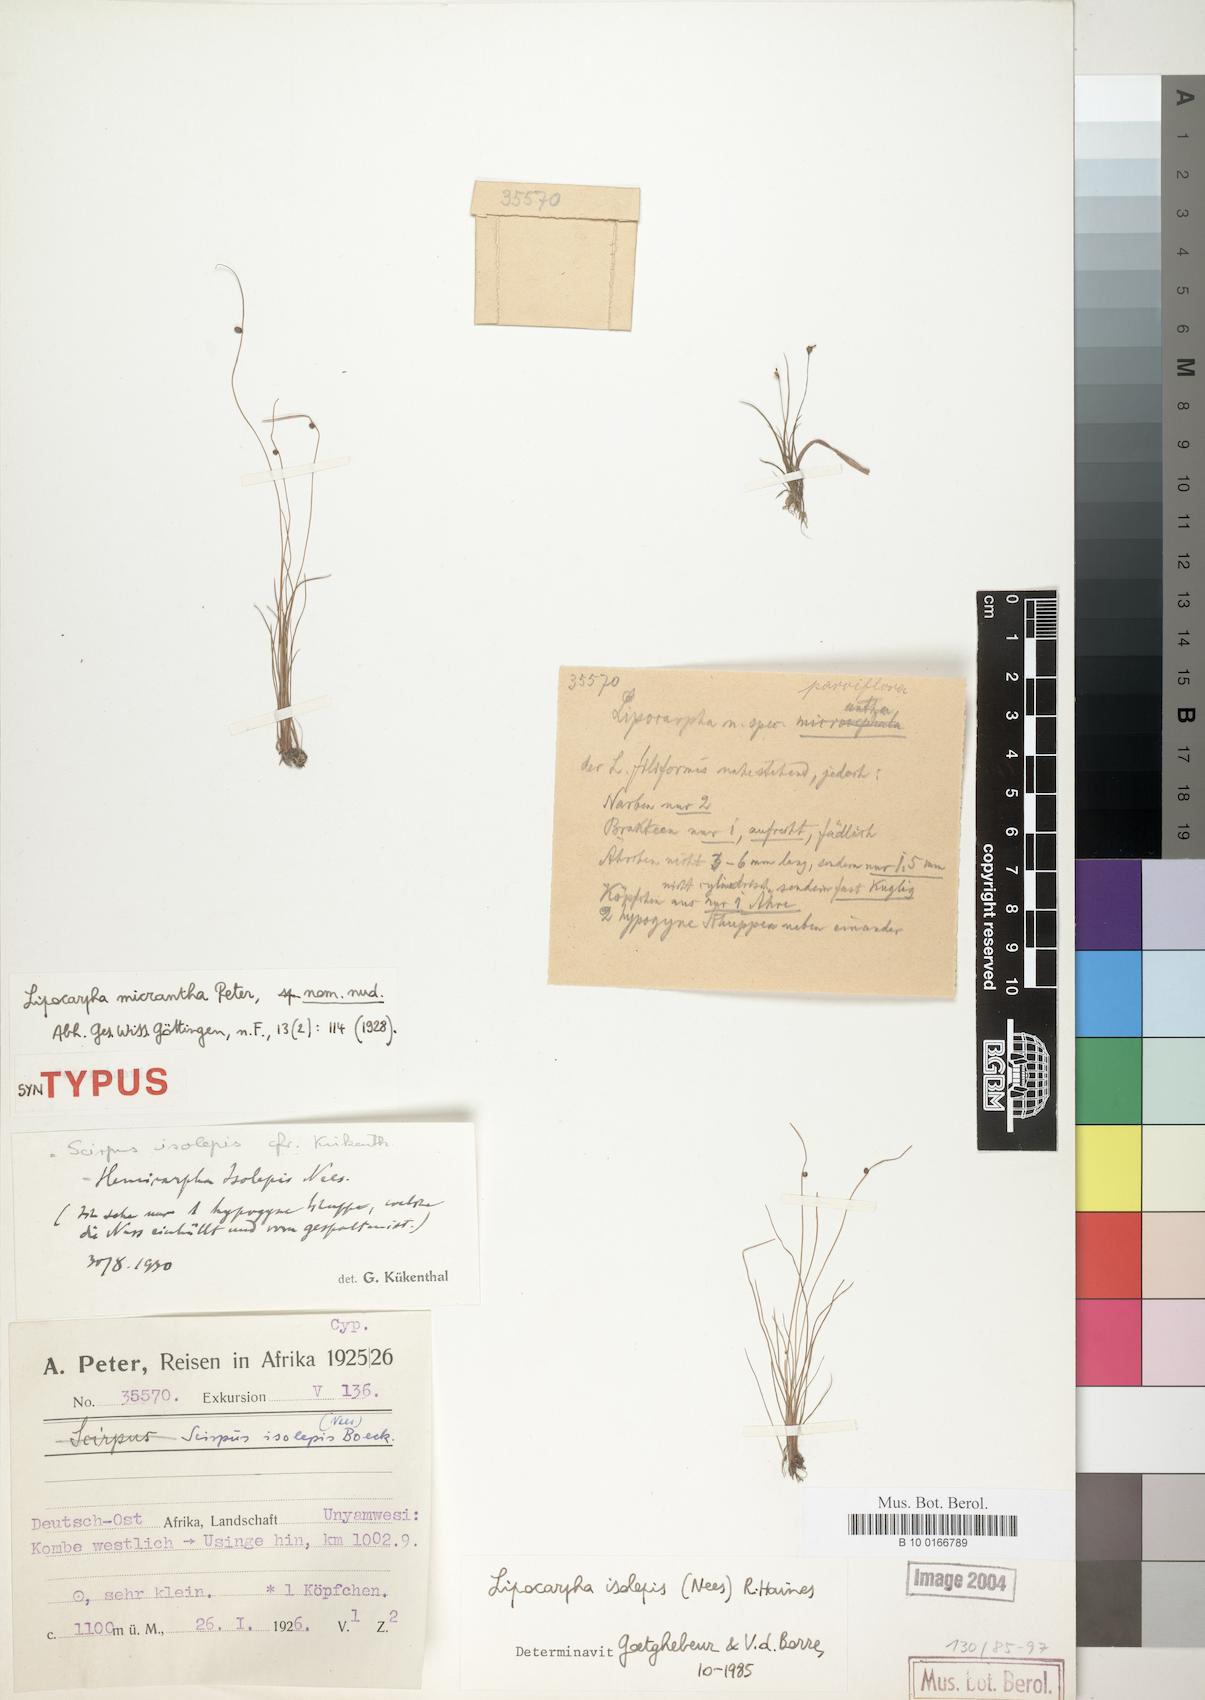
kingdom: Plantae
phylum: Tracheophyta
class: Liliopsida
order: Poales
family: Cyperaceae
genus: Cyperus
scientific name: Cyperus isolepis
